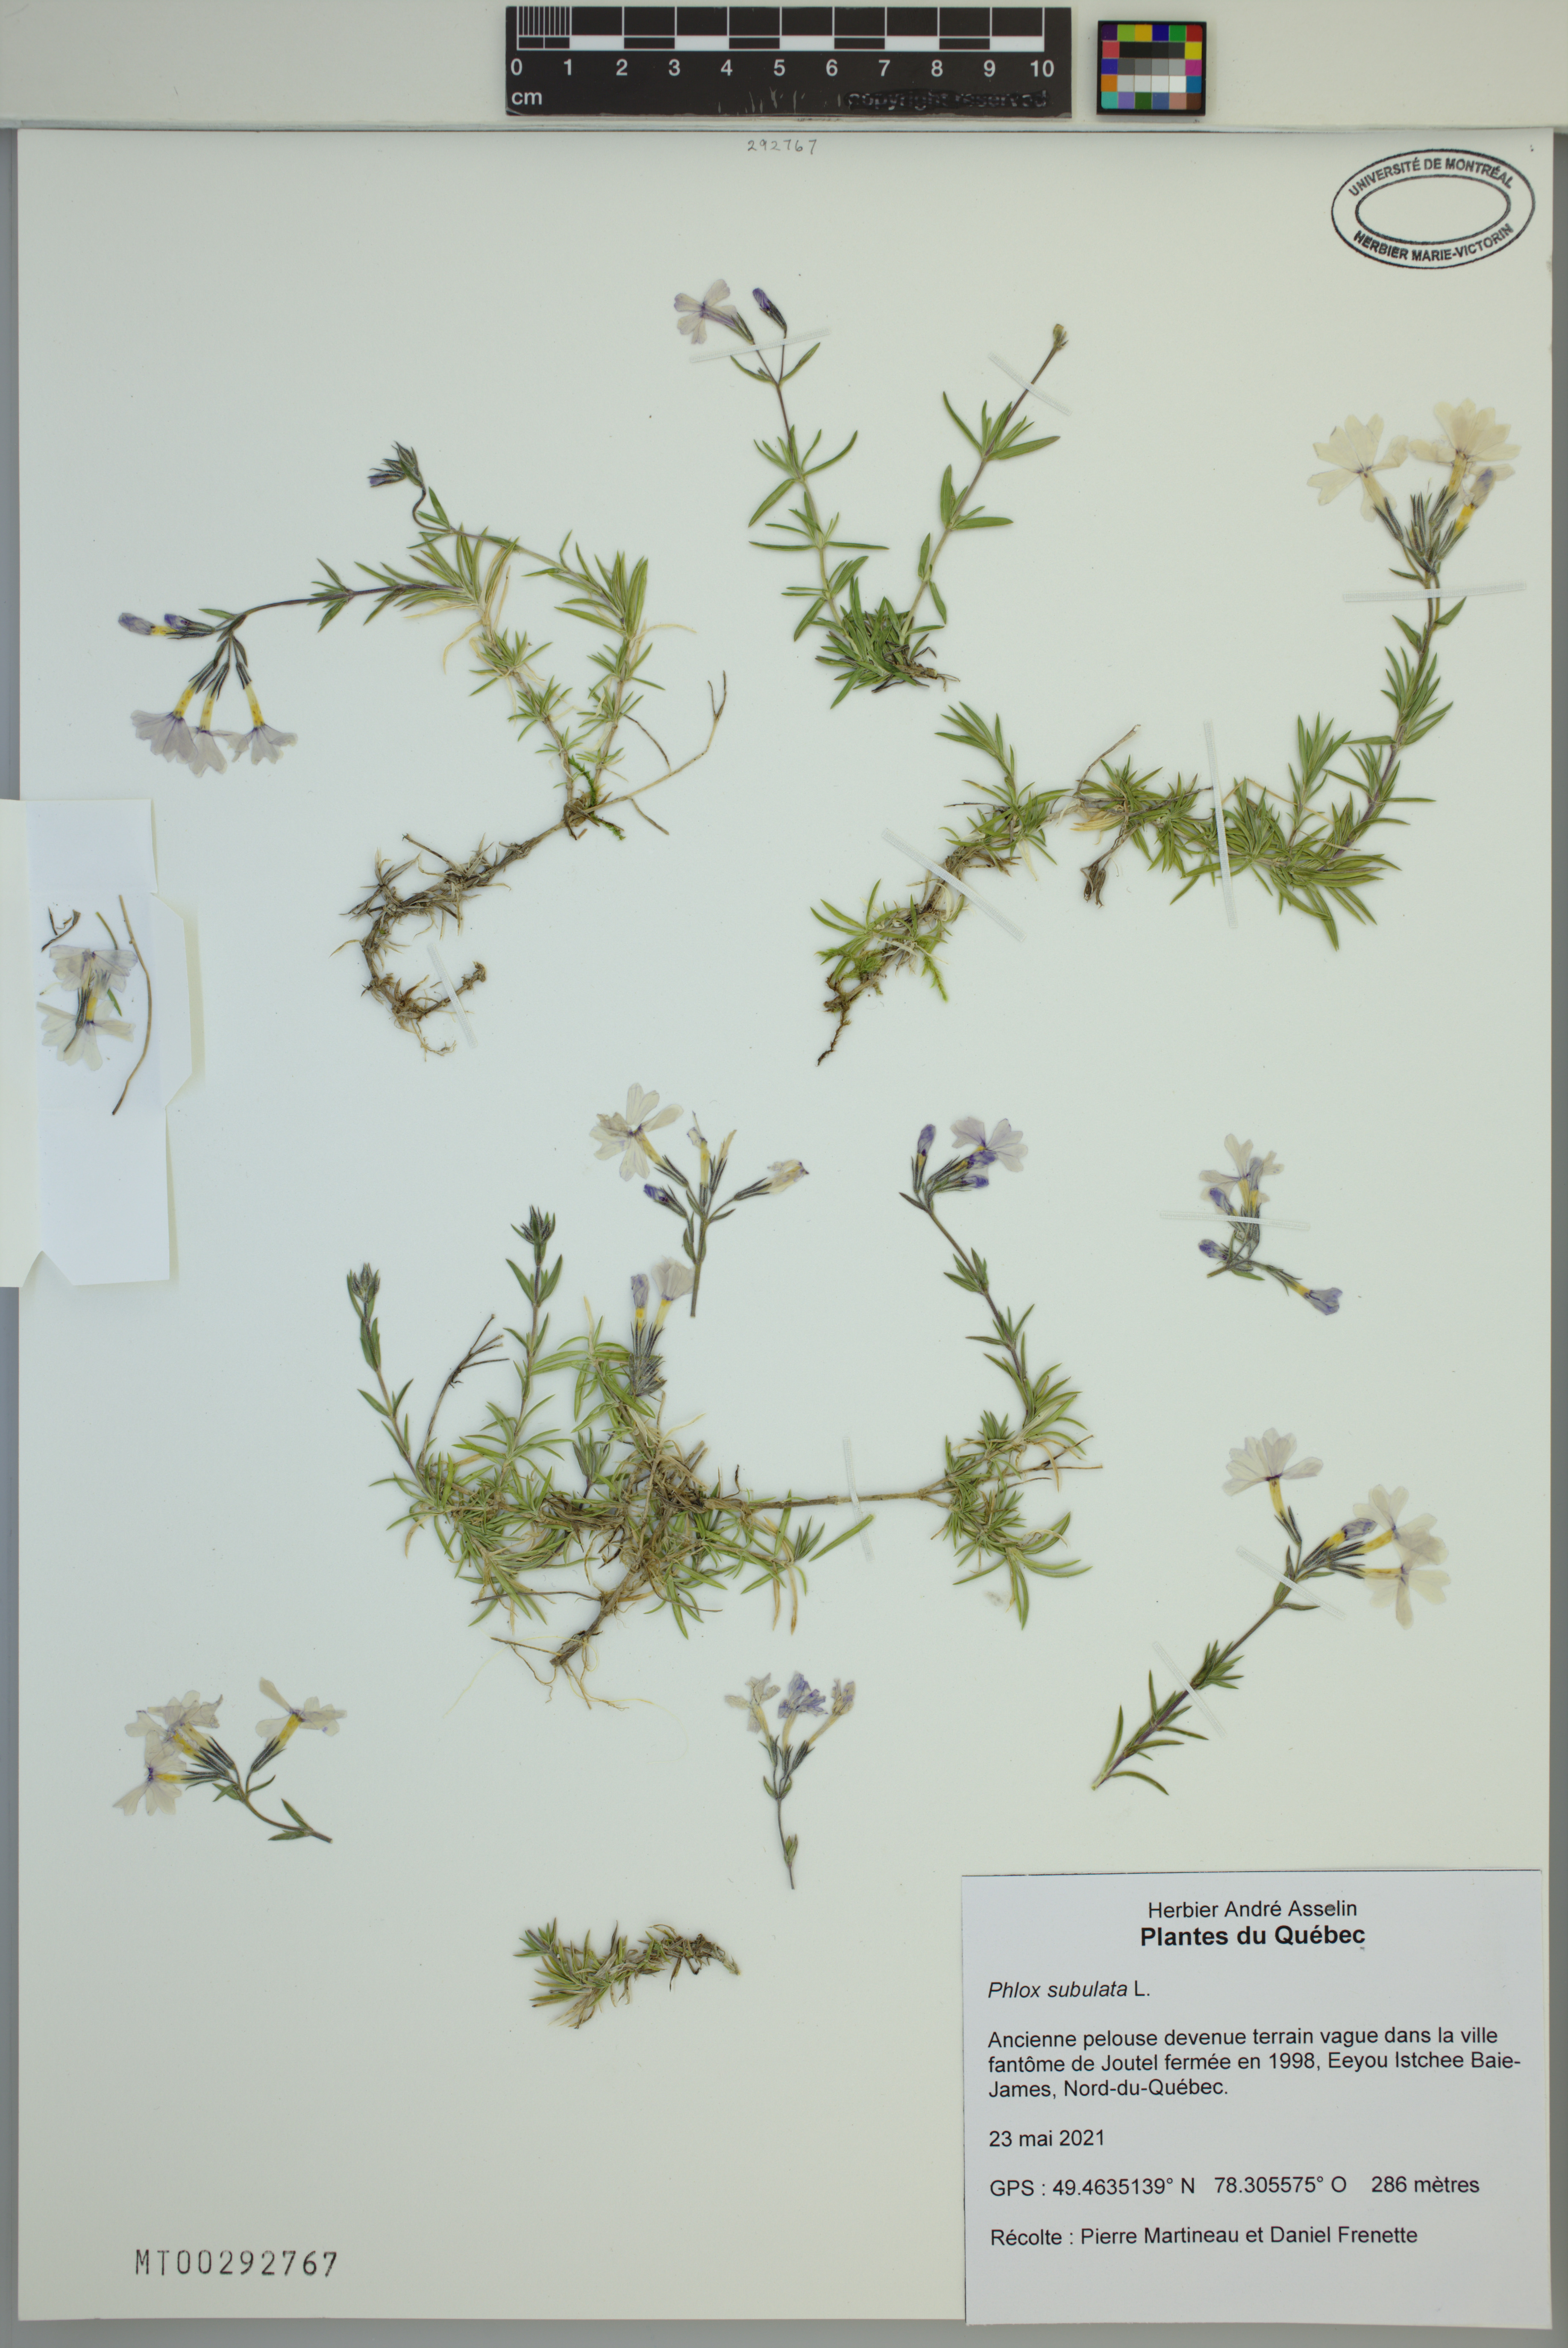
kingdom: Plantae
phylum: Tracheophyta
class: Magnoliopsida
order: Ericales
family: Polemoniaceae
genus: Phlox
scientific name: Phlox subulata
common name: Moss phlox
